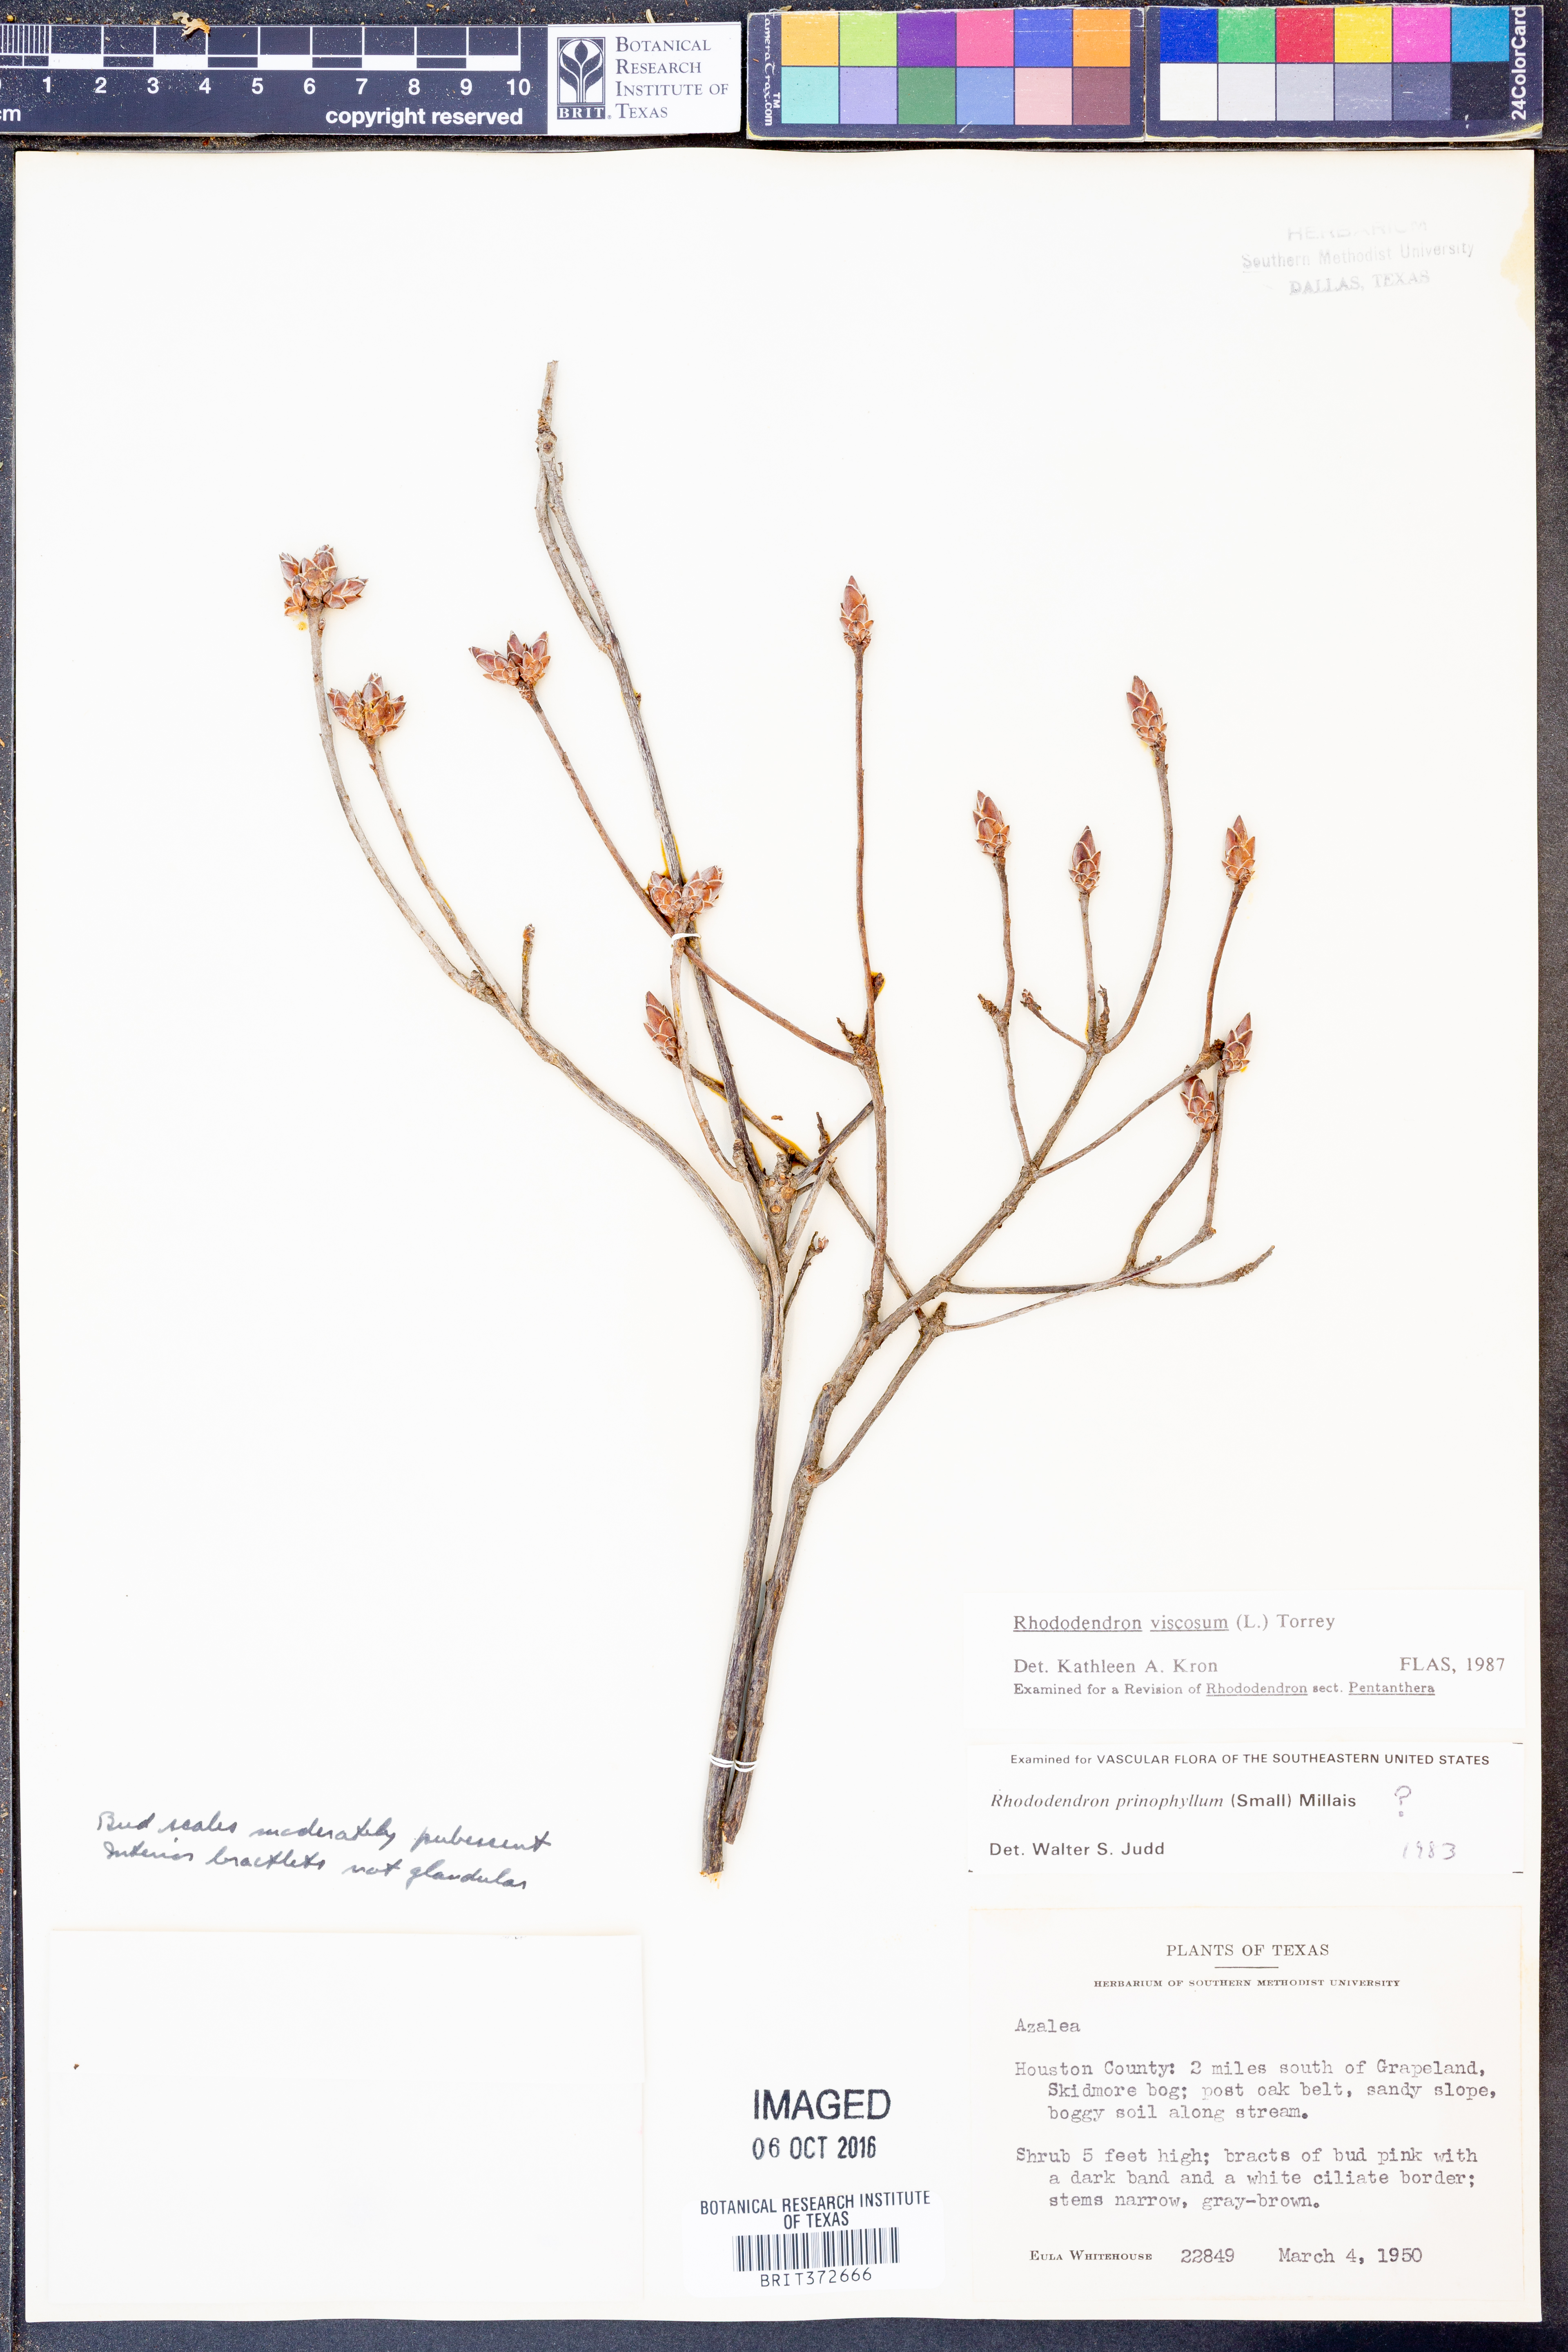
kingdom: Plantae
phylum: Tracheophyta
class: Magnoliopsida
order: Ericales
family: Ericaceae
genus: Rhododendron
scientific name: Rhododendron viscosum
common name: Clammy azalea
